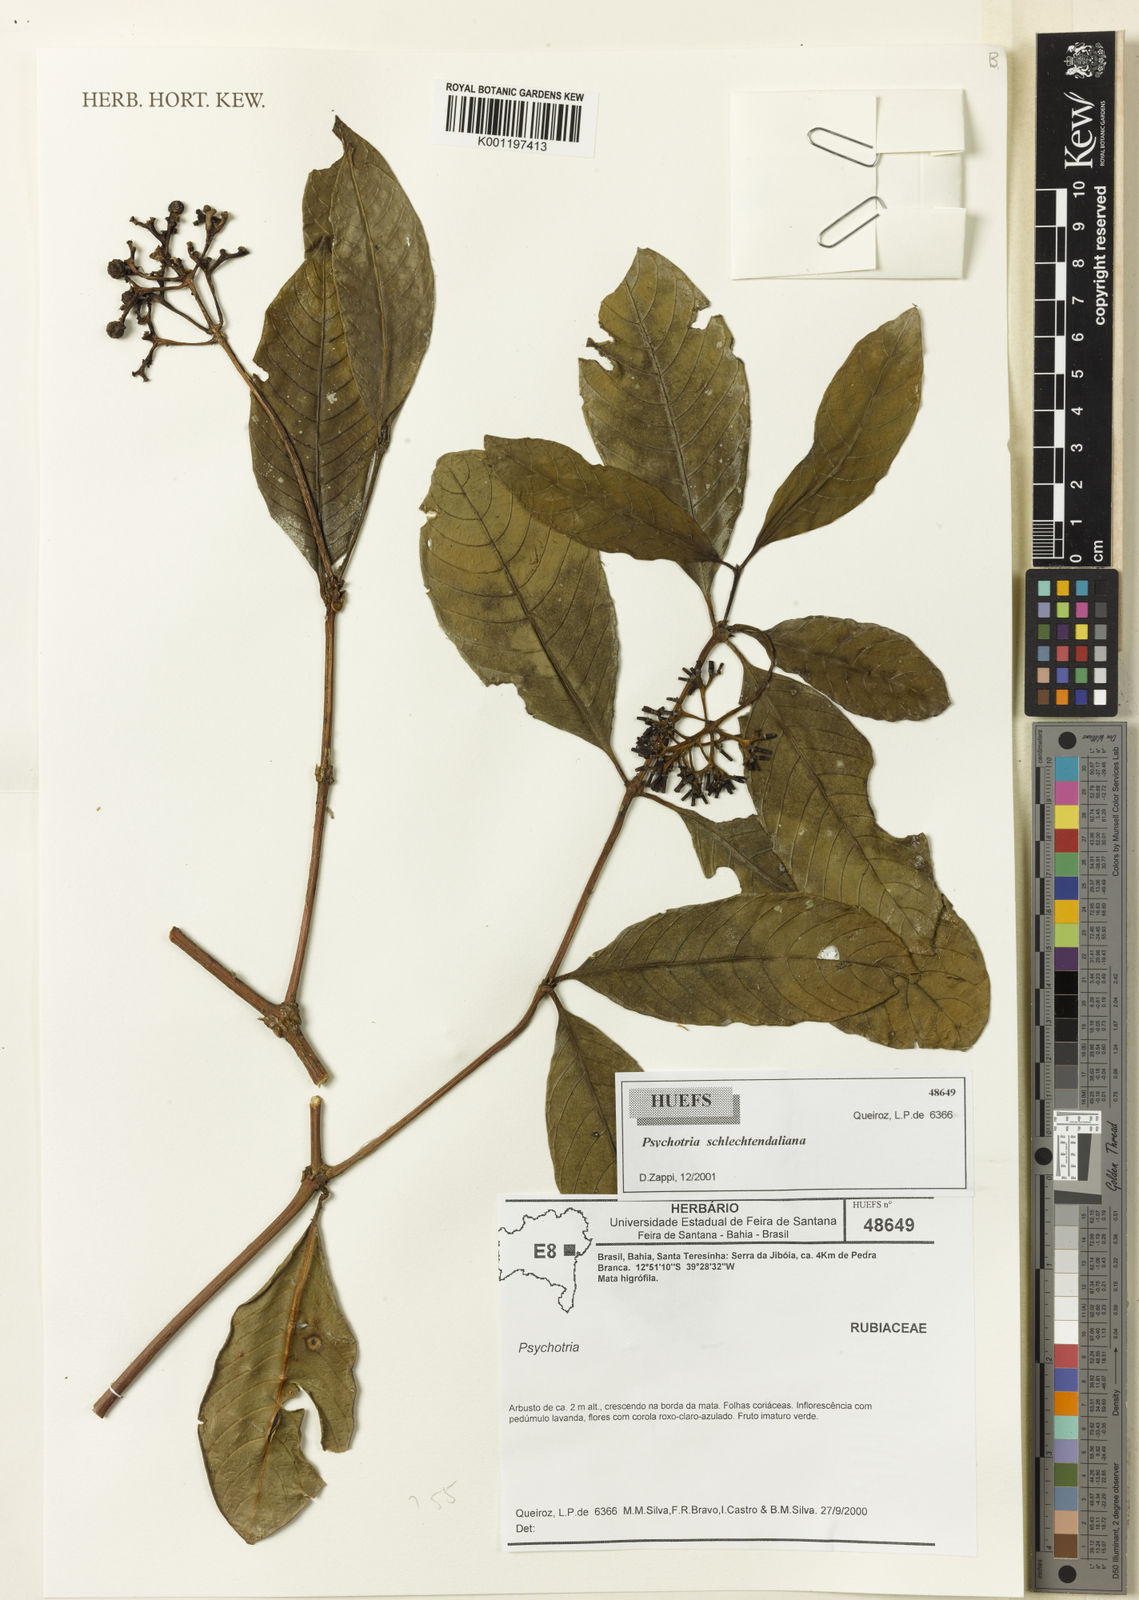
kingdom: Plantae
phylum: Tracheophyta
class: Magnoliopsida
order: Gentianales
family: Rubiaceae
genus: Psychotria
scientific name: Psychotria
